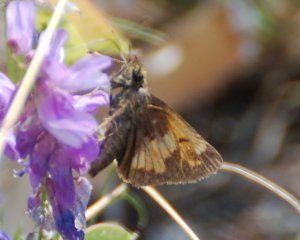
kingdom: Animalia
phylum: Arthropoda
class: Insecta
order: Lepidoptera
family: Hesperiidae
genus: Polites
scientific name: Polites coras
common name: Peck's Skipper
